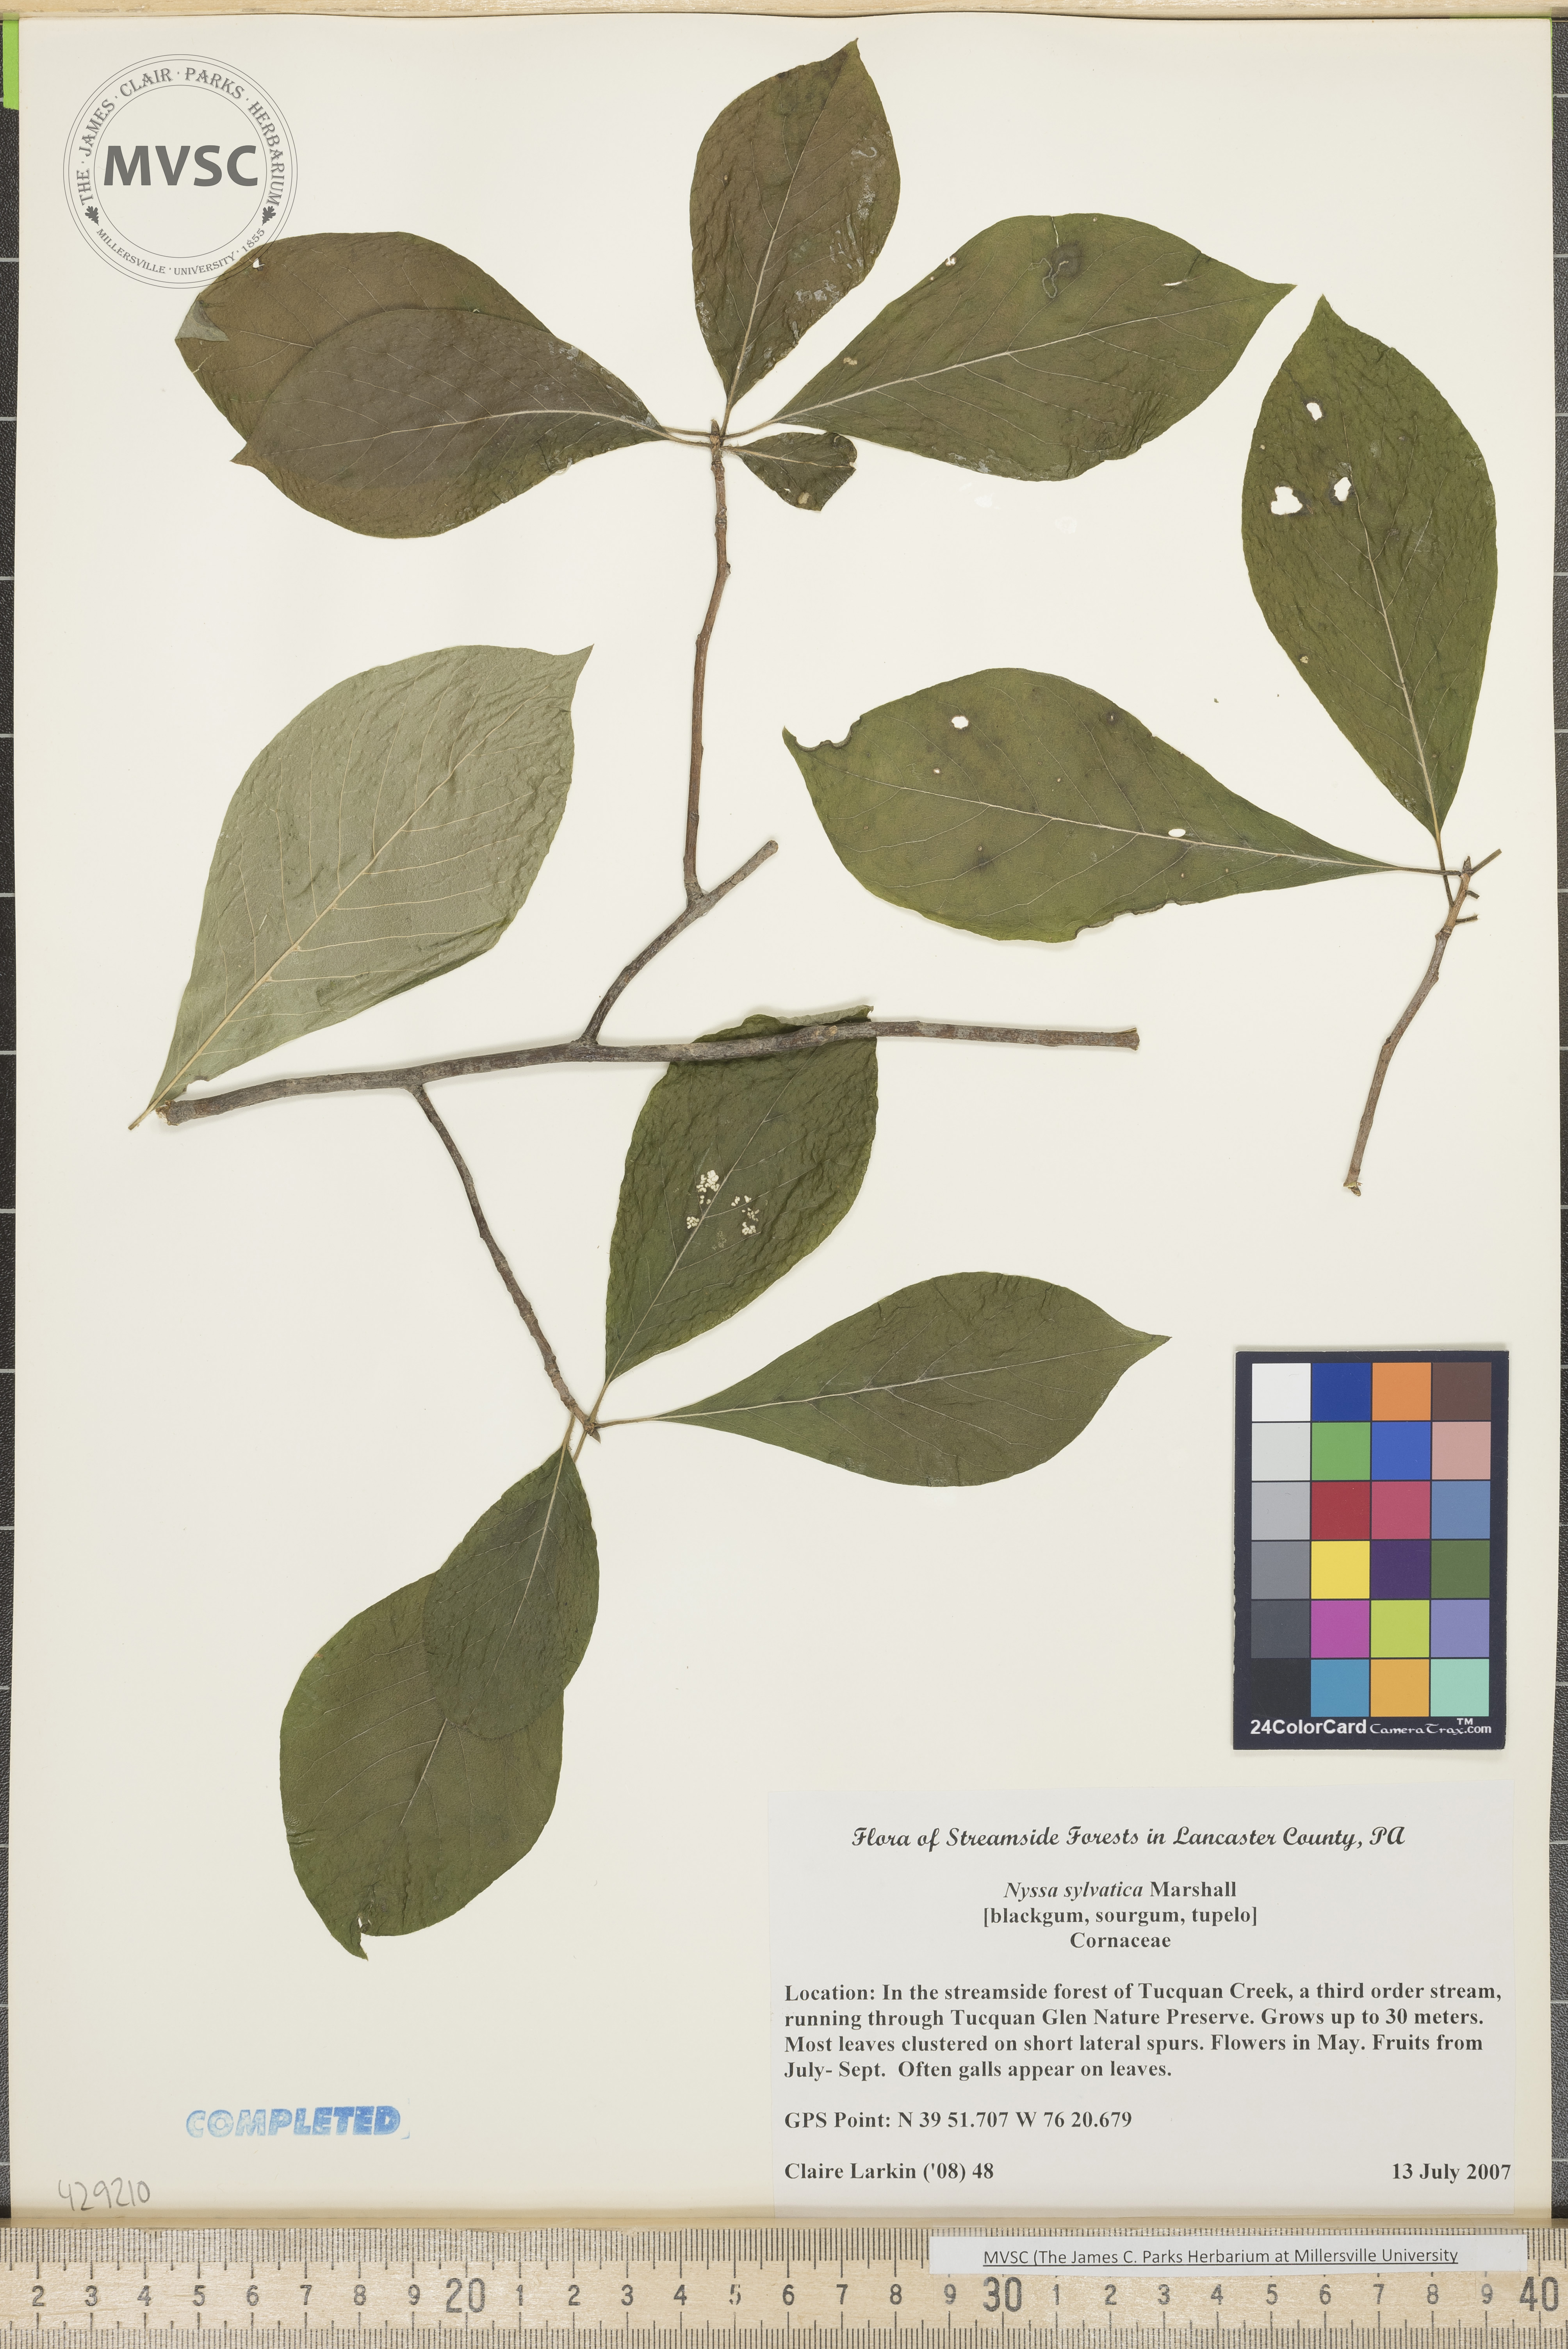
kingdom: Plantae
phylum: Tracheophyta
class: Magnoliopsida
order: Cornales
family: Nyssaceae
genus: Nyssa
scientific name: Nyssa sylvatica
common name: Black gum
